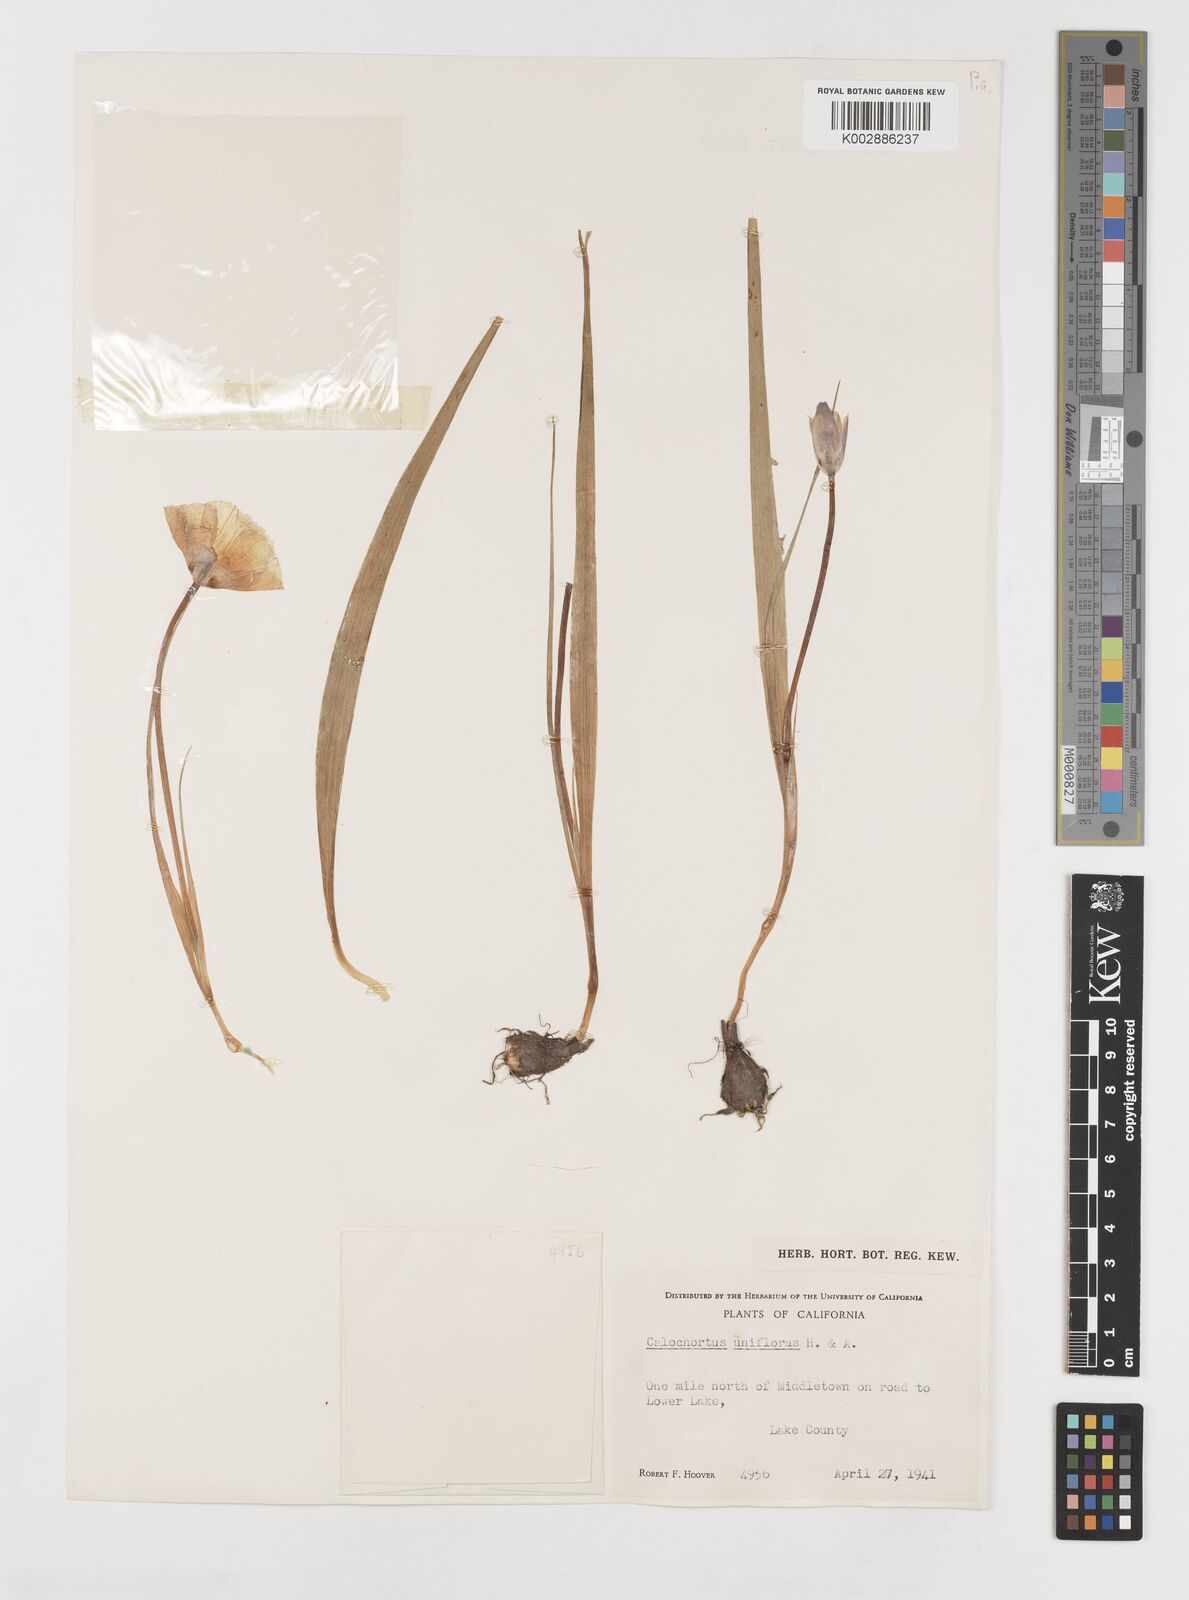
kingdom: Plantae
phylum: Tracheophyta
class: Liliopsida
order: Liliales
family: Liliaceae
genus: Calochortus
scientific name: Calochortus uniflorus
